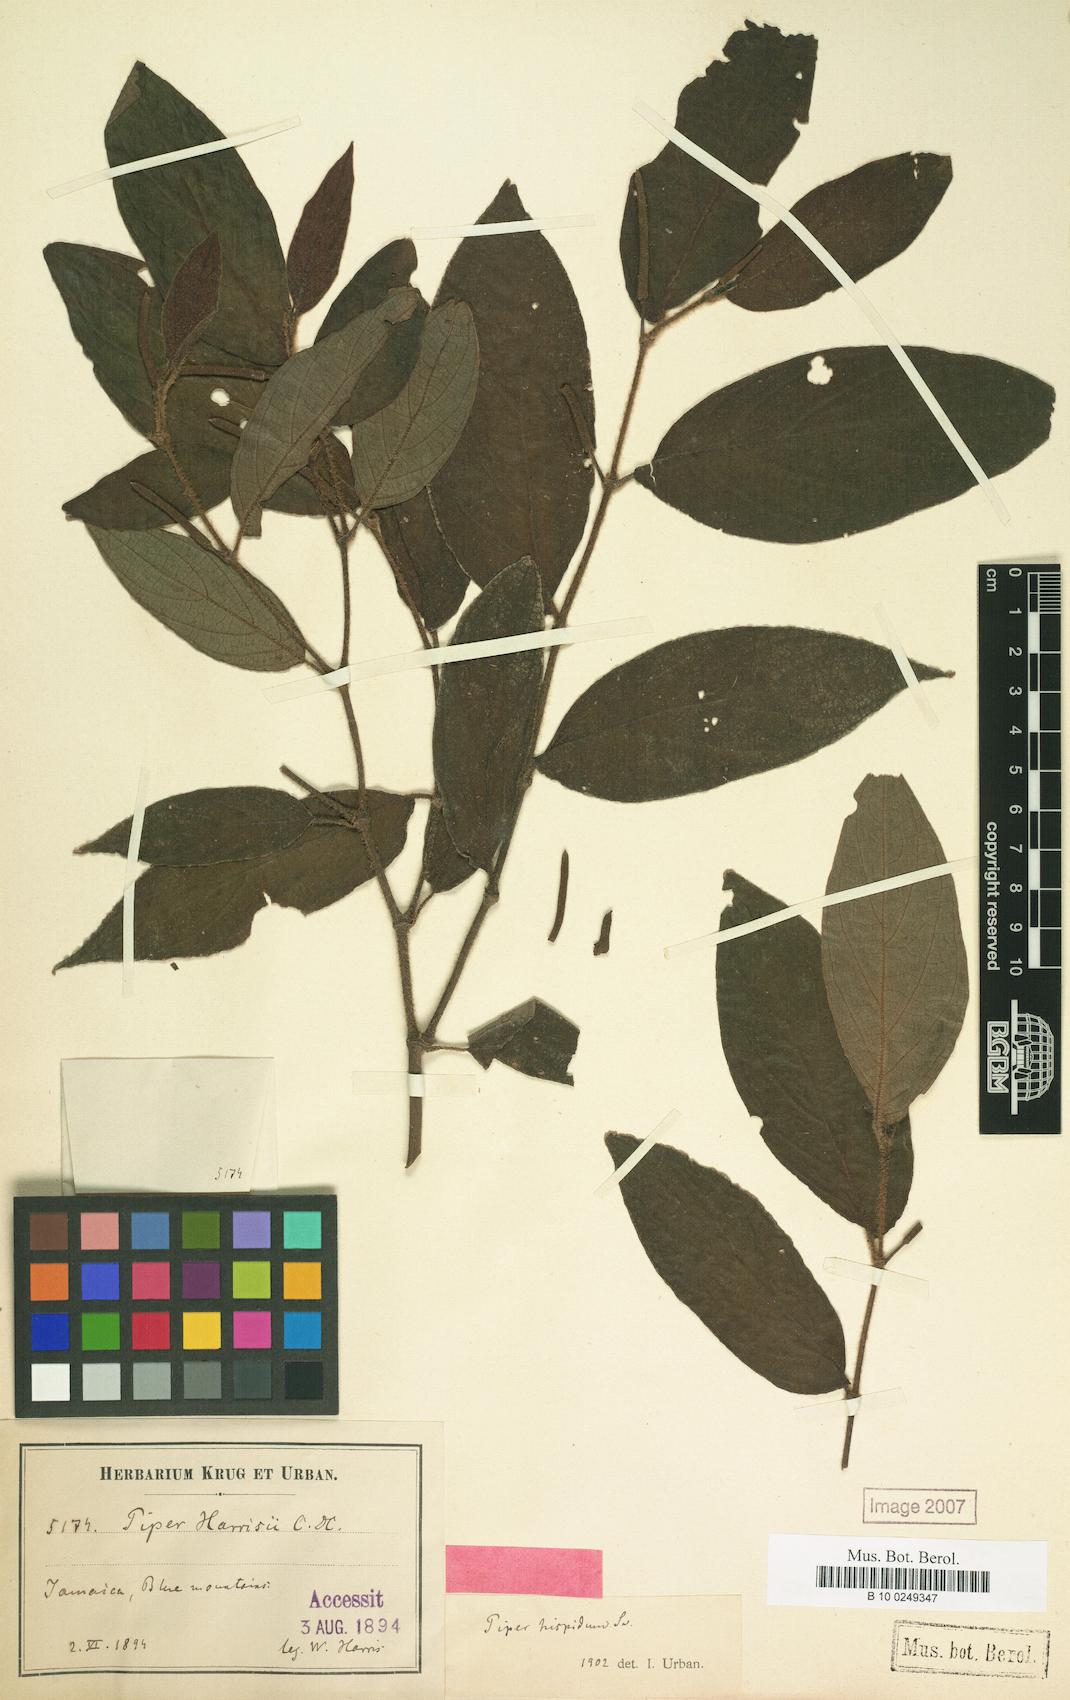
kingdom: Plantae
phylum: Tracheophyta
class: Magnoliopsida
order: Piperales
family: Piperaceae
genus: Piper
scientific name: Piper fadyenii
